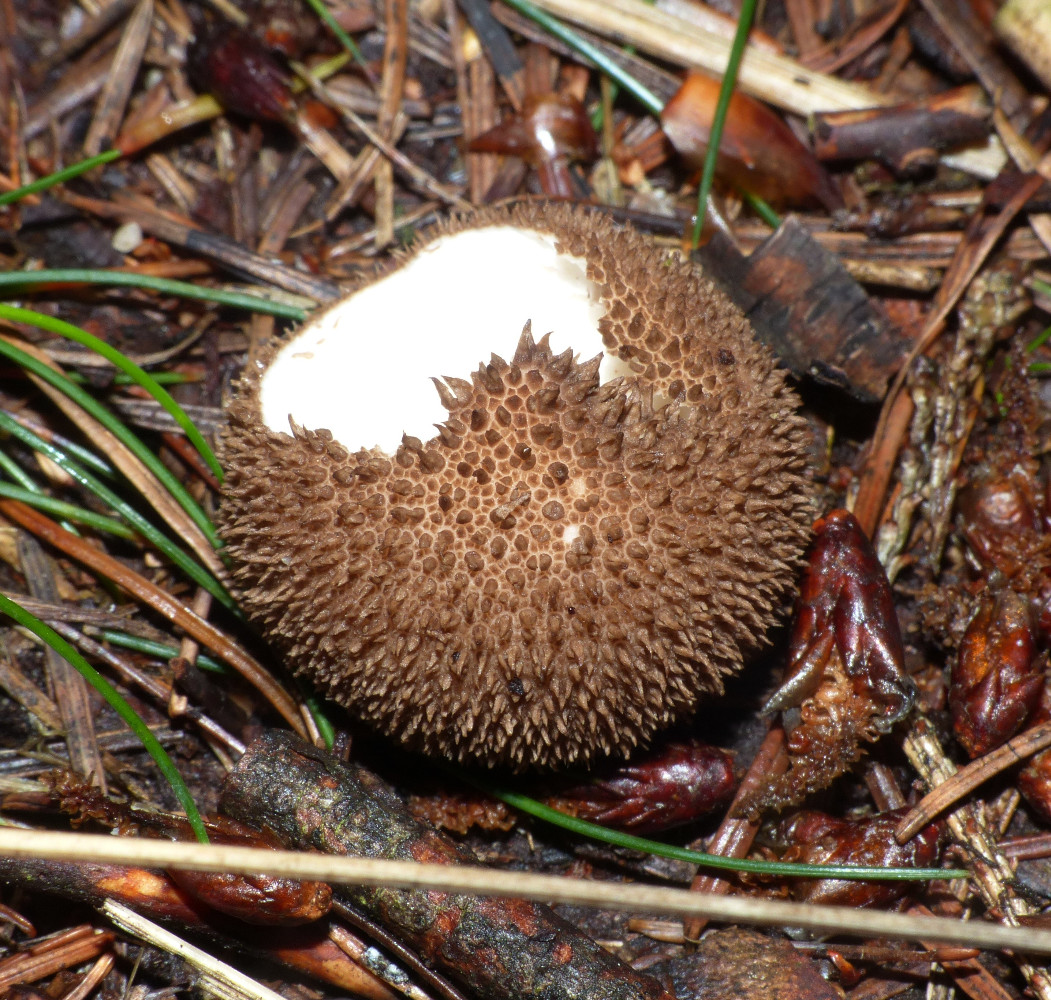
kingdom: Fungi
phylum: Basidiomycota
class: Agaricomycetes
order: Agaricales
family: Lycoperdaceae
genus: Lycoperdon
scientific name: Lycoperdon nigrescens
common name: sortagtig støvbold
